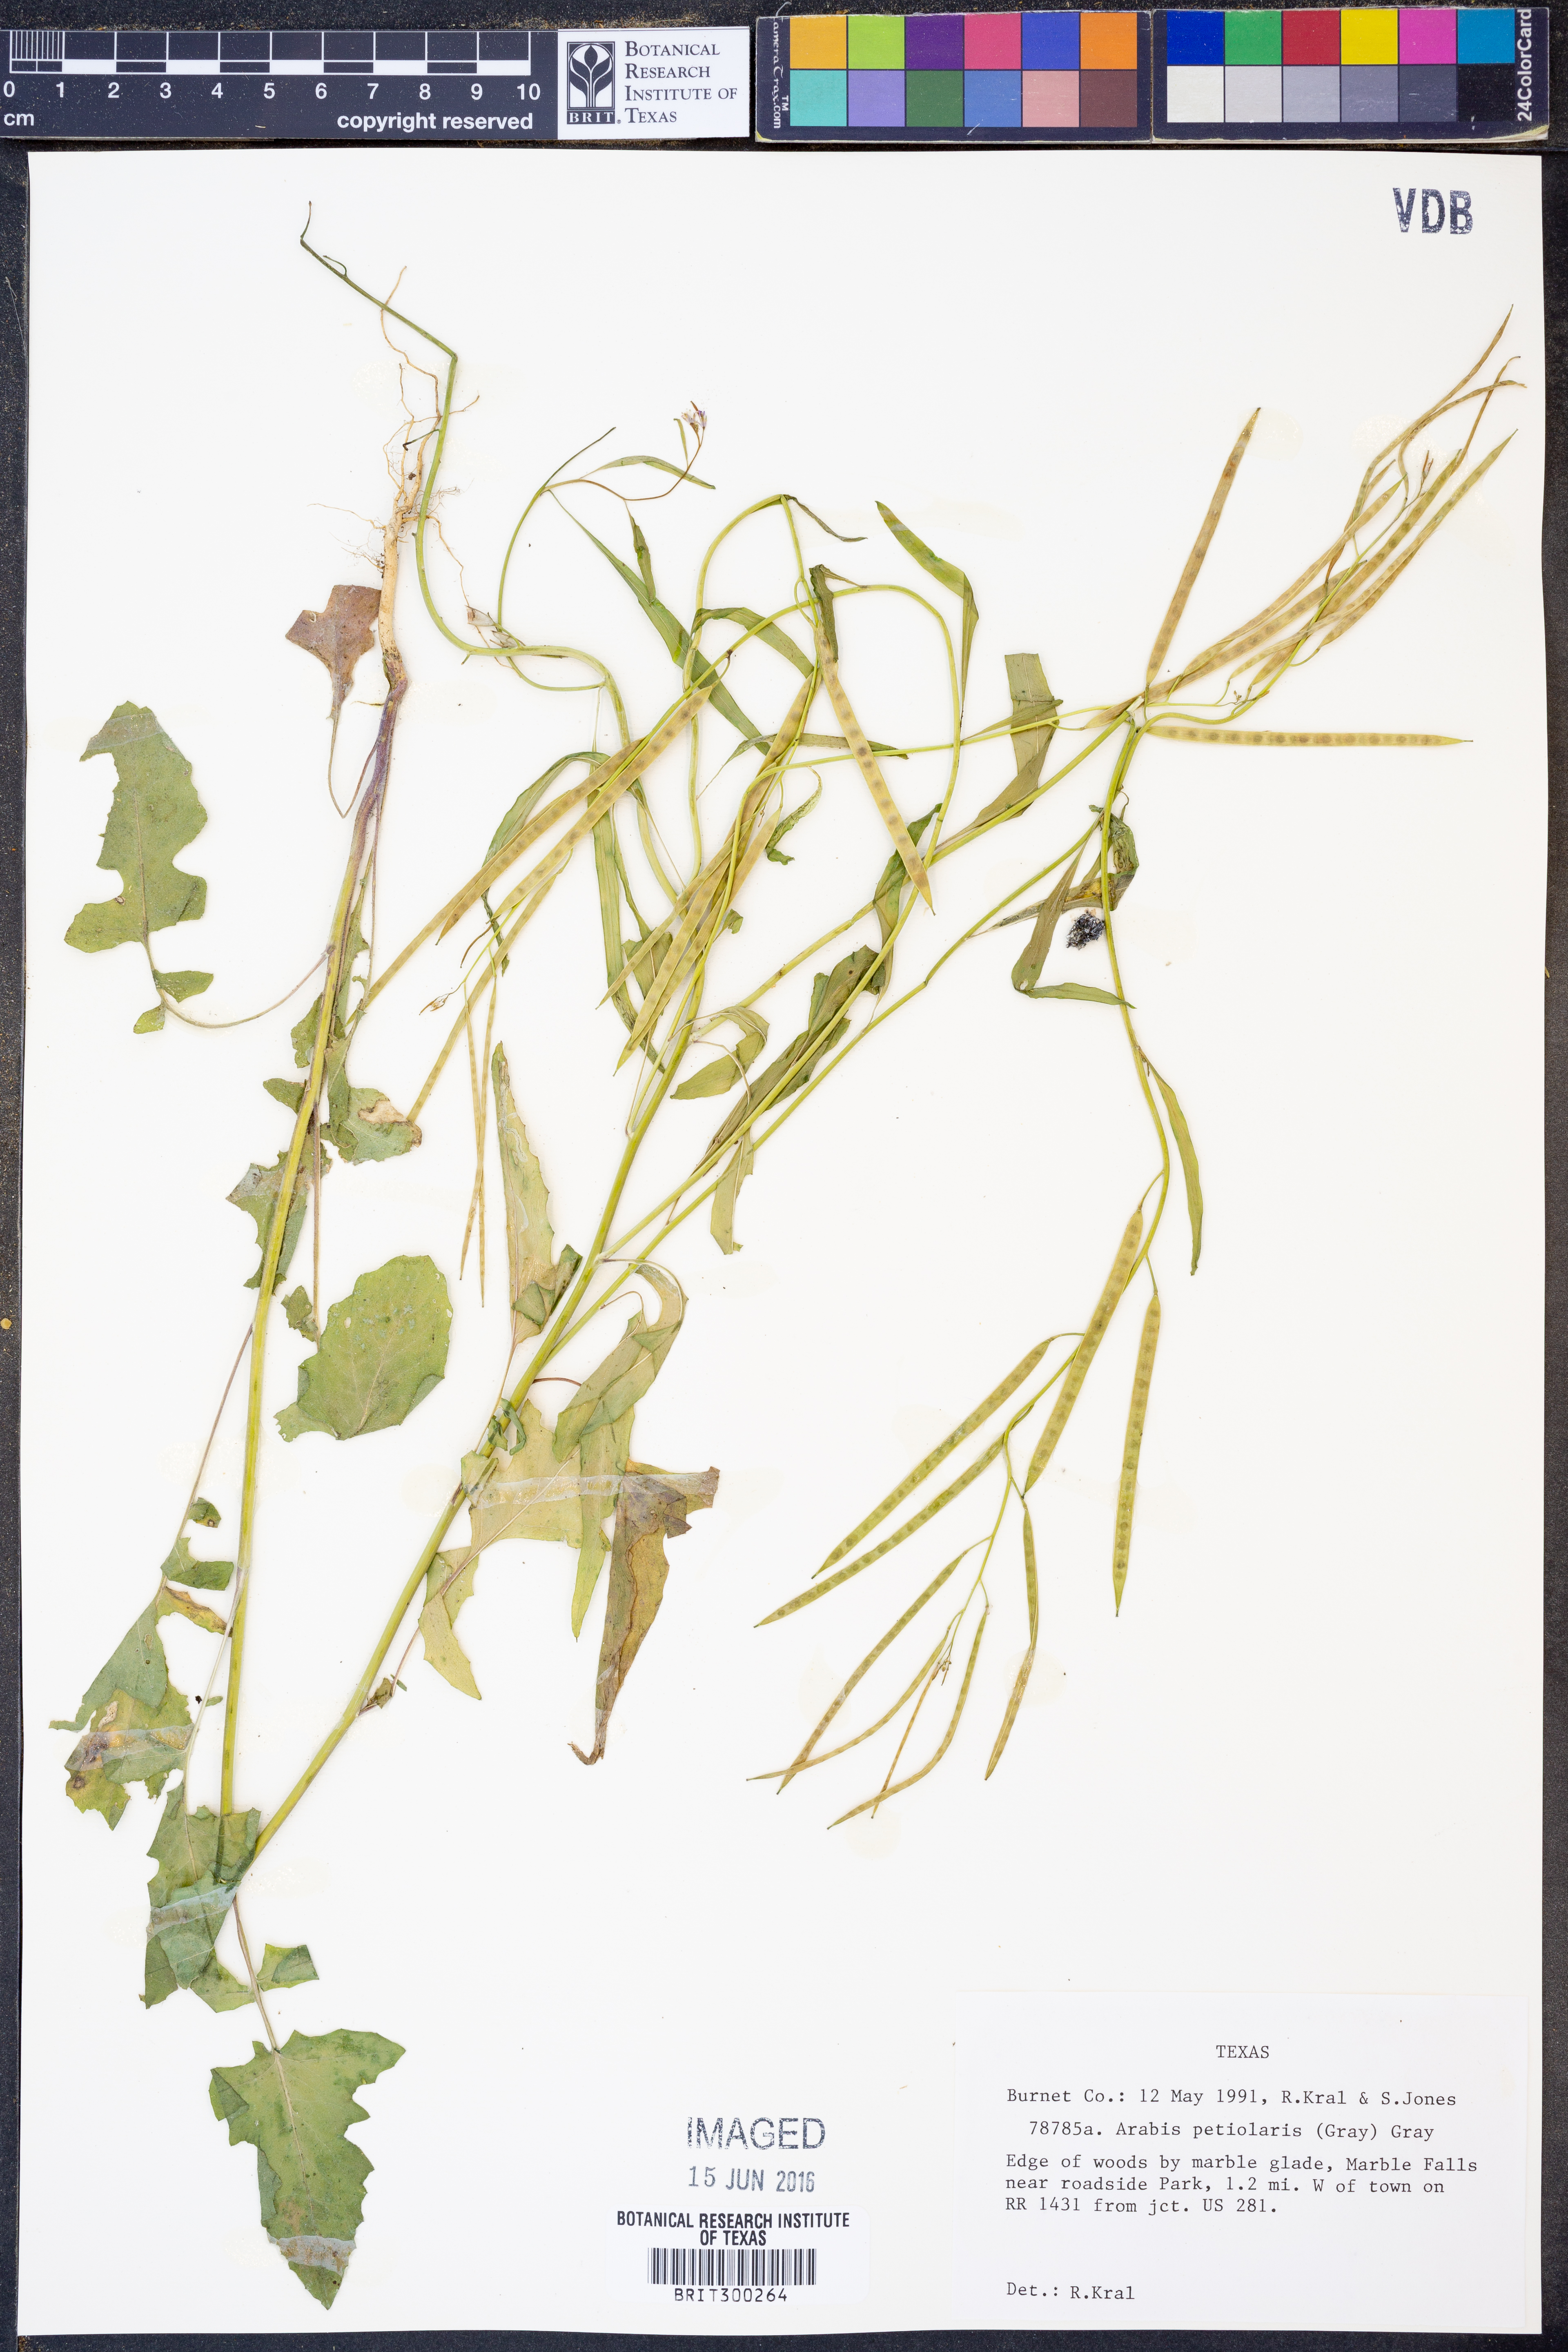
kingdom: Plantae
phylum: Tracheophyta
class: Magnoliopsida
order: Brassicales
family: Brassicaceae
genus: Streptanthus
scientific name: Streptanthus petiolaris
